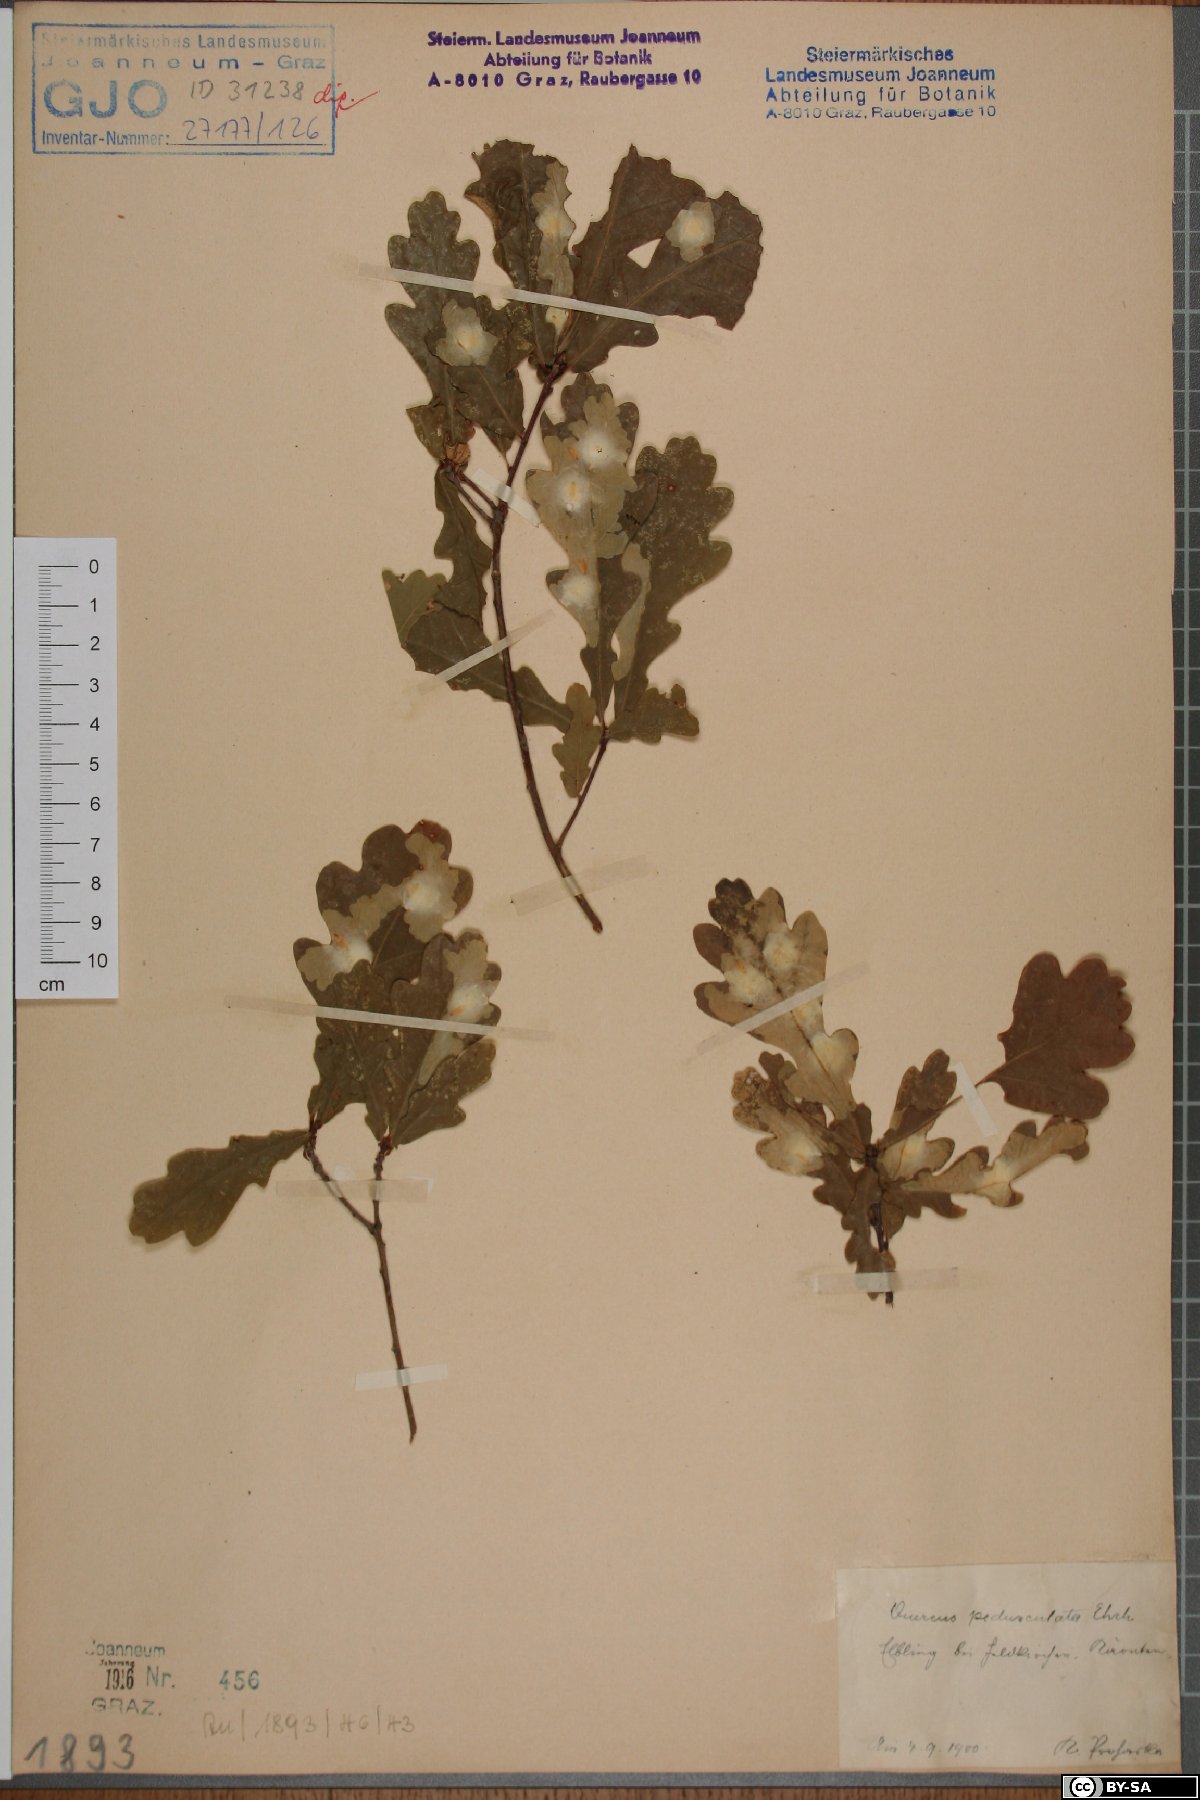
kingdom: Plantae
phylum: Tracheophyta
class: Magnoliopsida
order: Fagales
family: Fagaceae
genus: Quercus
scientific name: Quercus robur
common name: Pedunculate oak
